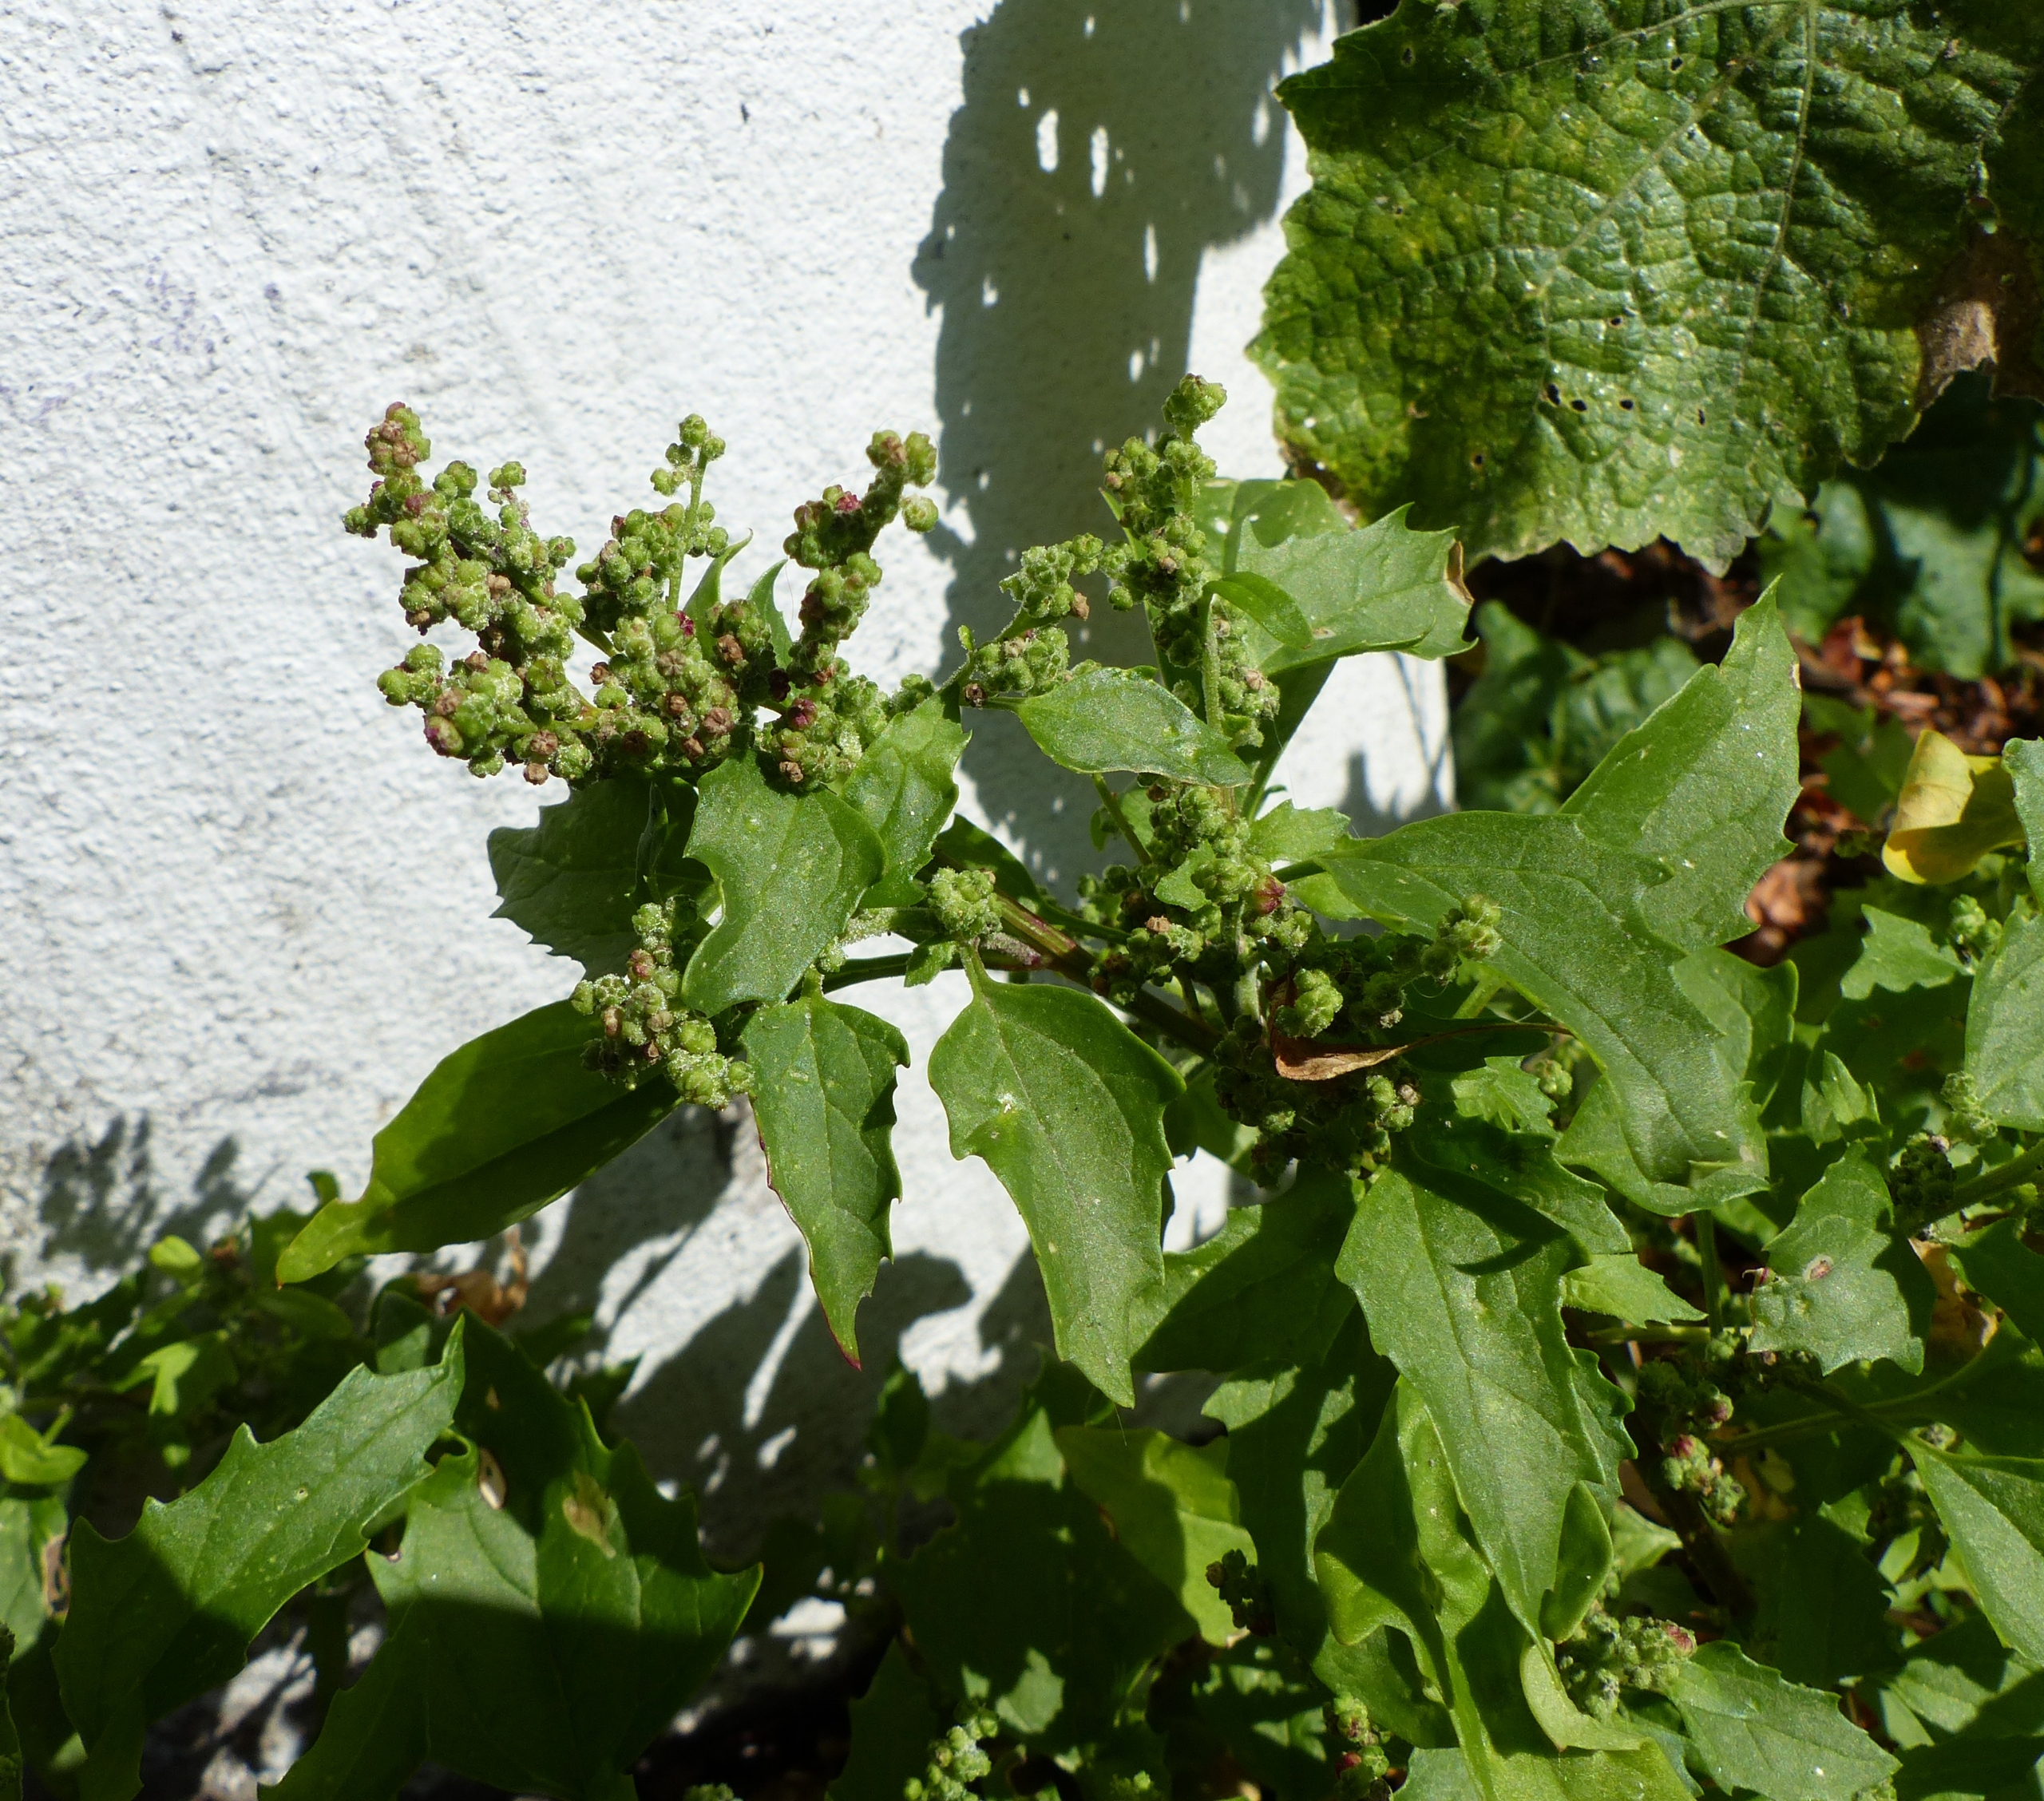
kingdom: Plantae
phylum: Tracheophyta
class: Magnoliopsida
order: Caryophyllales
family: Amaranthaceae
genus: Chenopodiastrum
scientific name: Chenopodiastrum murale
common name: Mur-gåsefod
